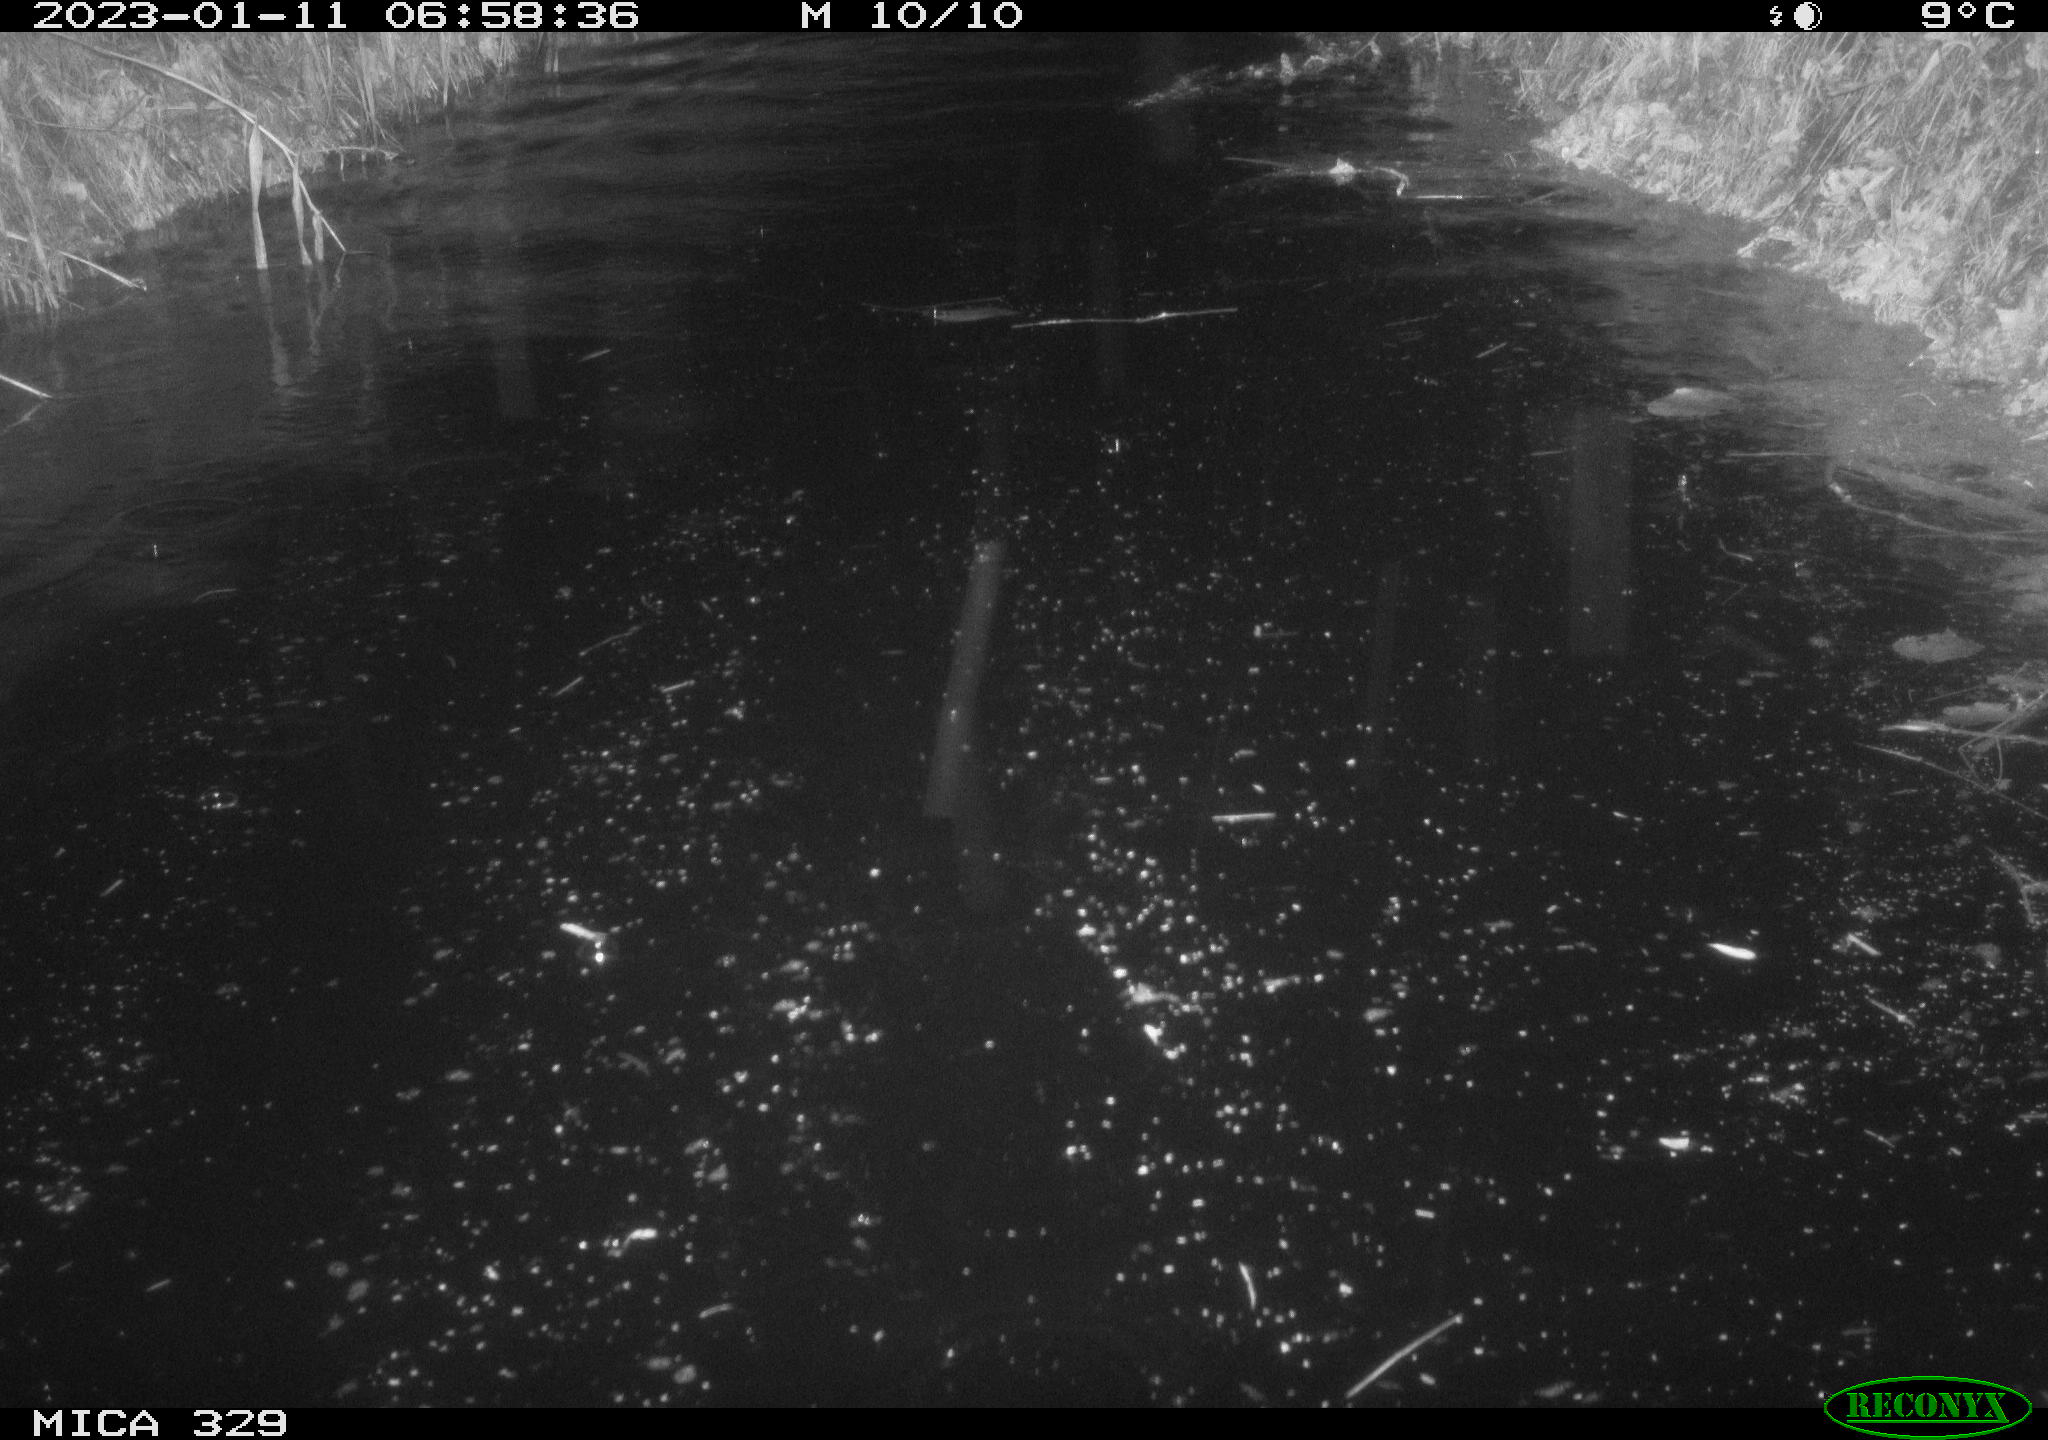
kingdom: Animalia
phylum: Chordata
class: Mammalia
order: Rodentia
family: Cricetidae
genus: Ondatra
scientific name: Ondatra zibethicus
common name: Muskrat
